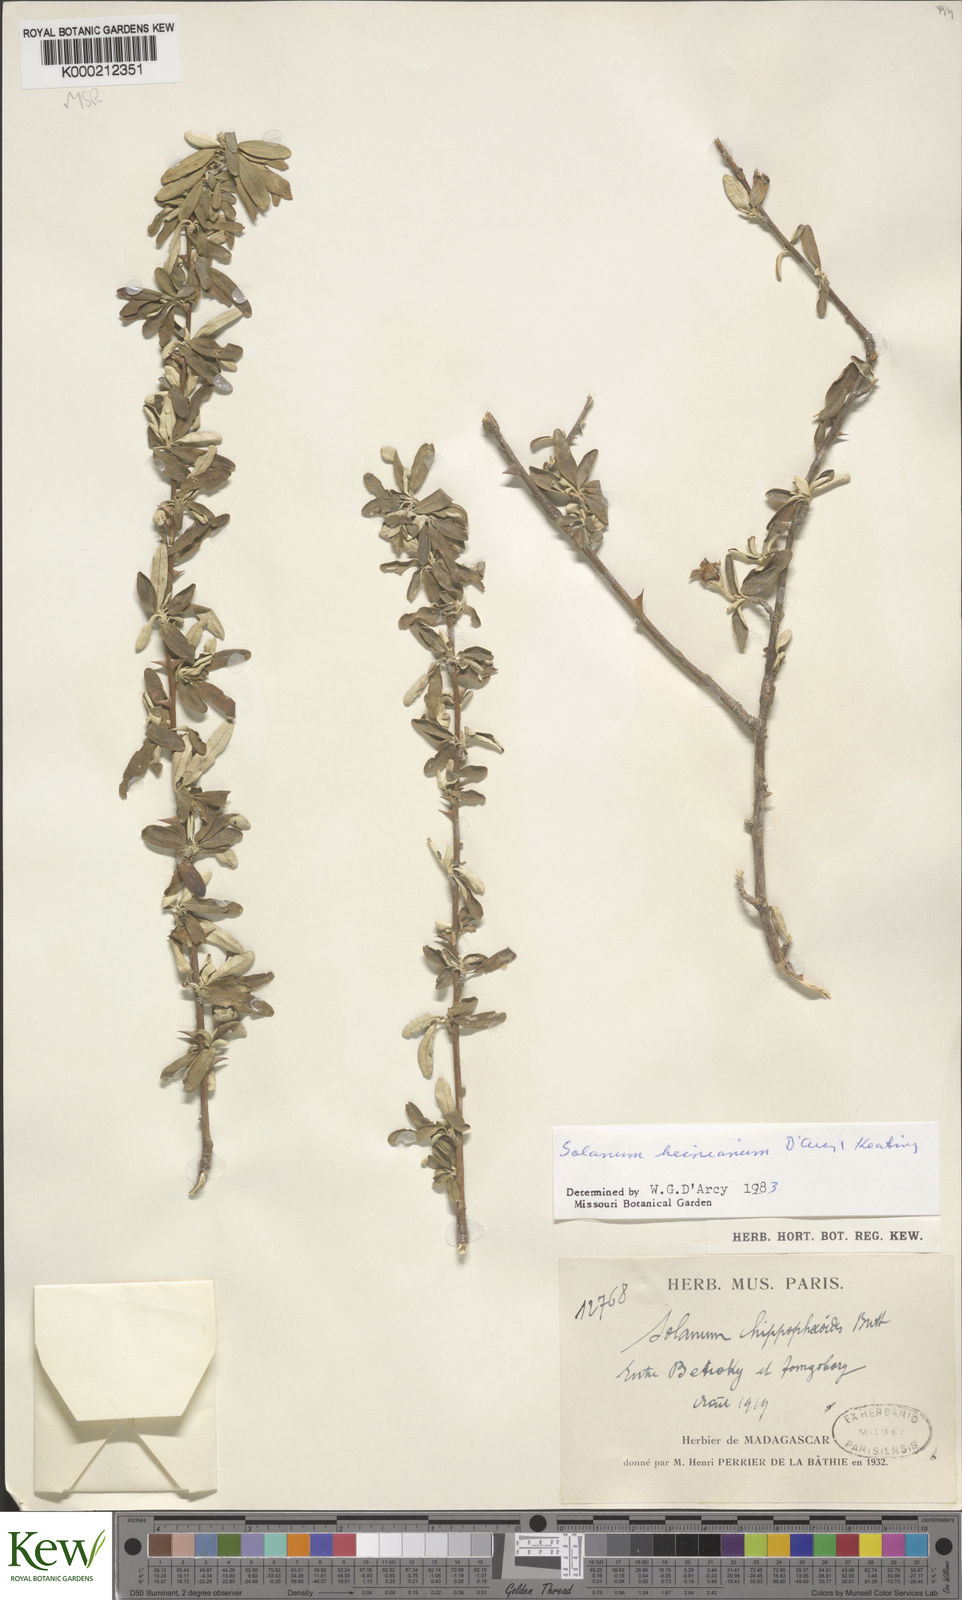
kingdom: Plantae
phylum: Tracheophyta
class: Magnoliopsida
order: Solanales
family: Solanaceae
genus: Solanum
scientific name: Solanum heinianum
